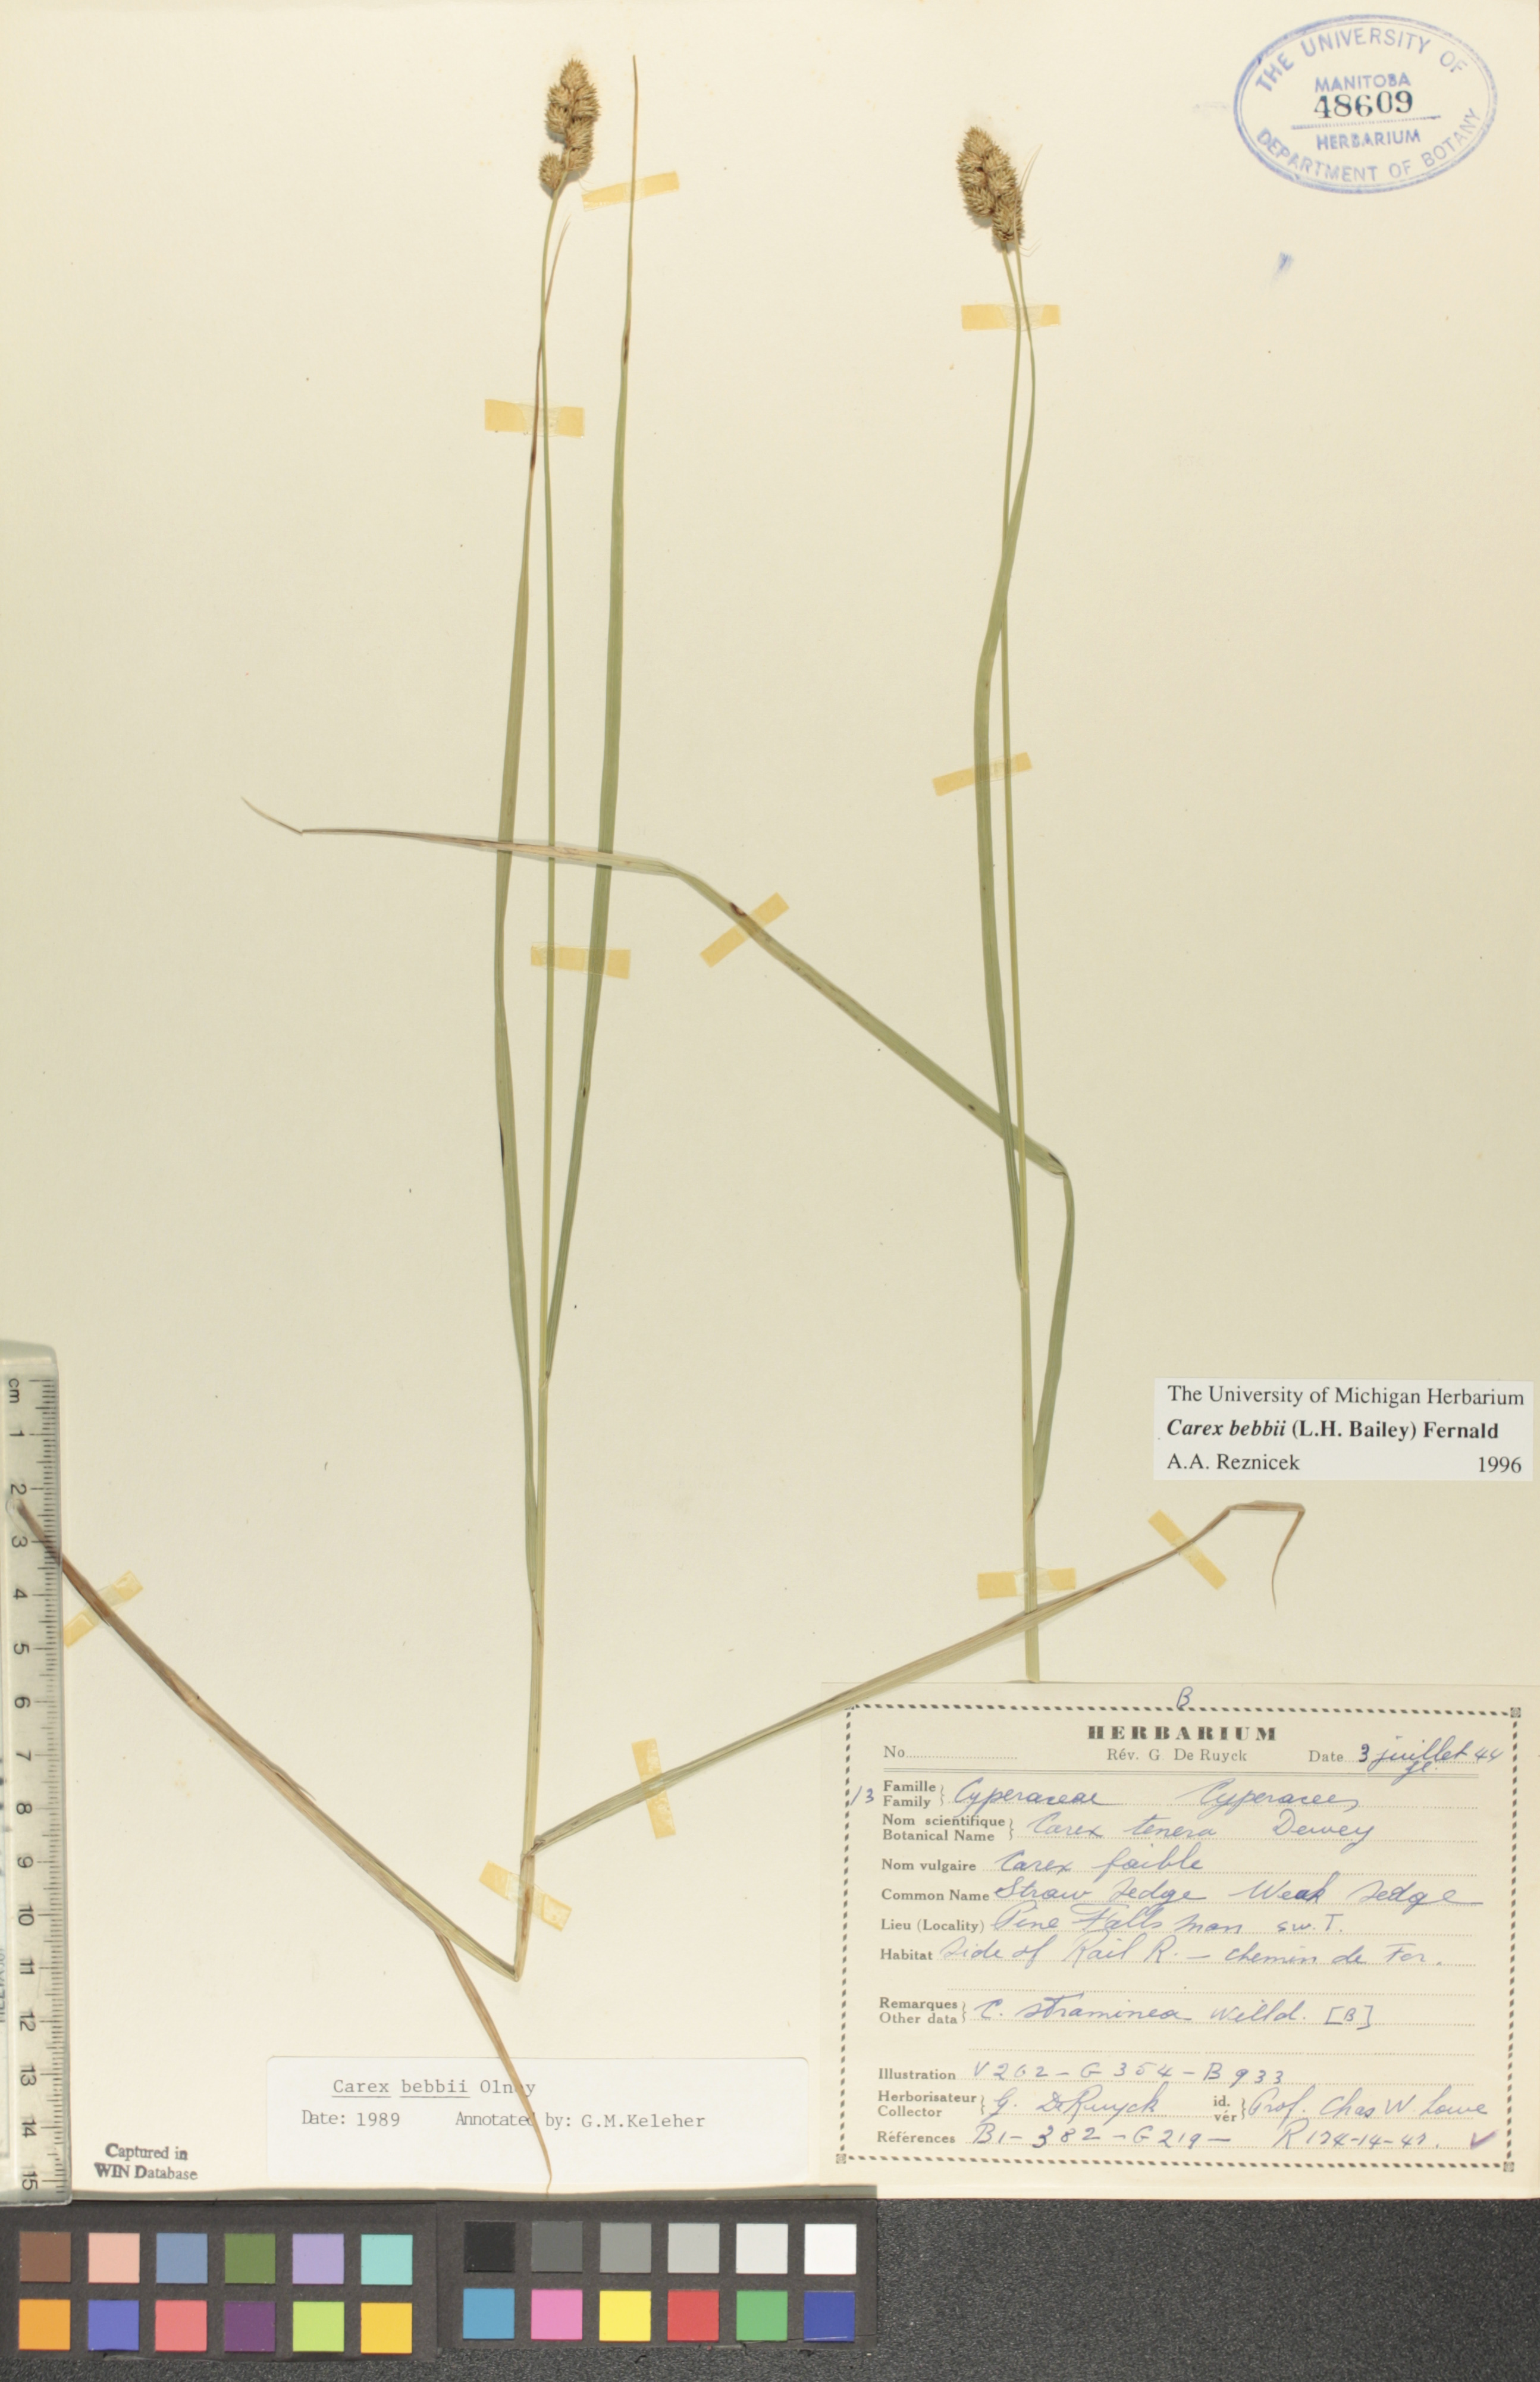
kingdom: Plantae
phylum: Tracheophyta
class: Liliopsida
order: Poales
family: Cyperaceae
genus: Carex
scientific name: Carex bebbii
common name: Bebb's sedge
